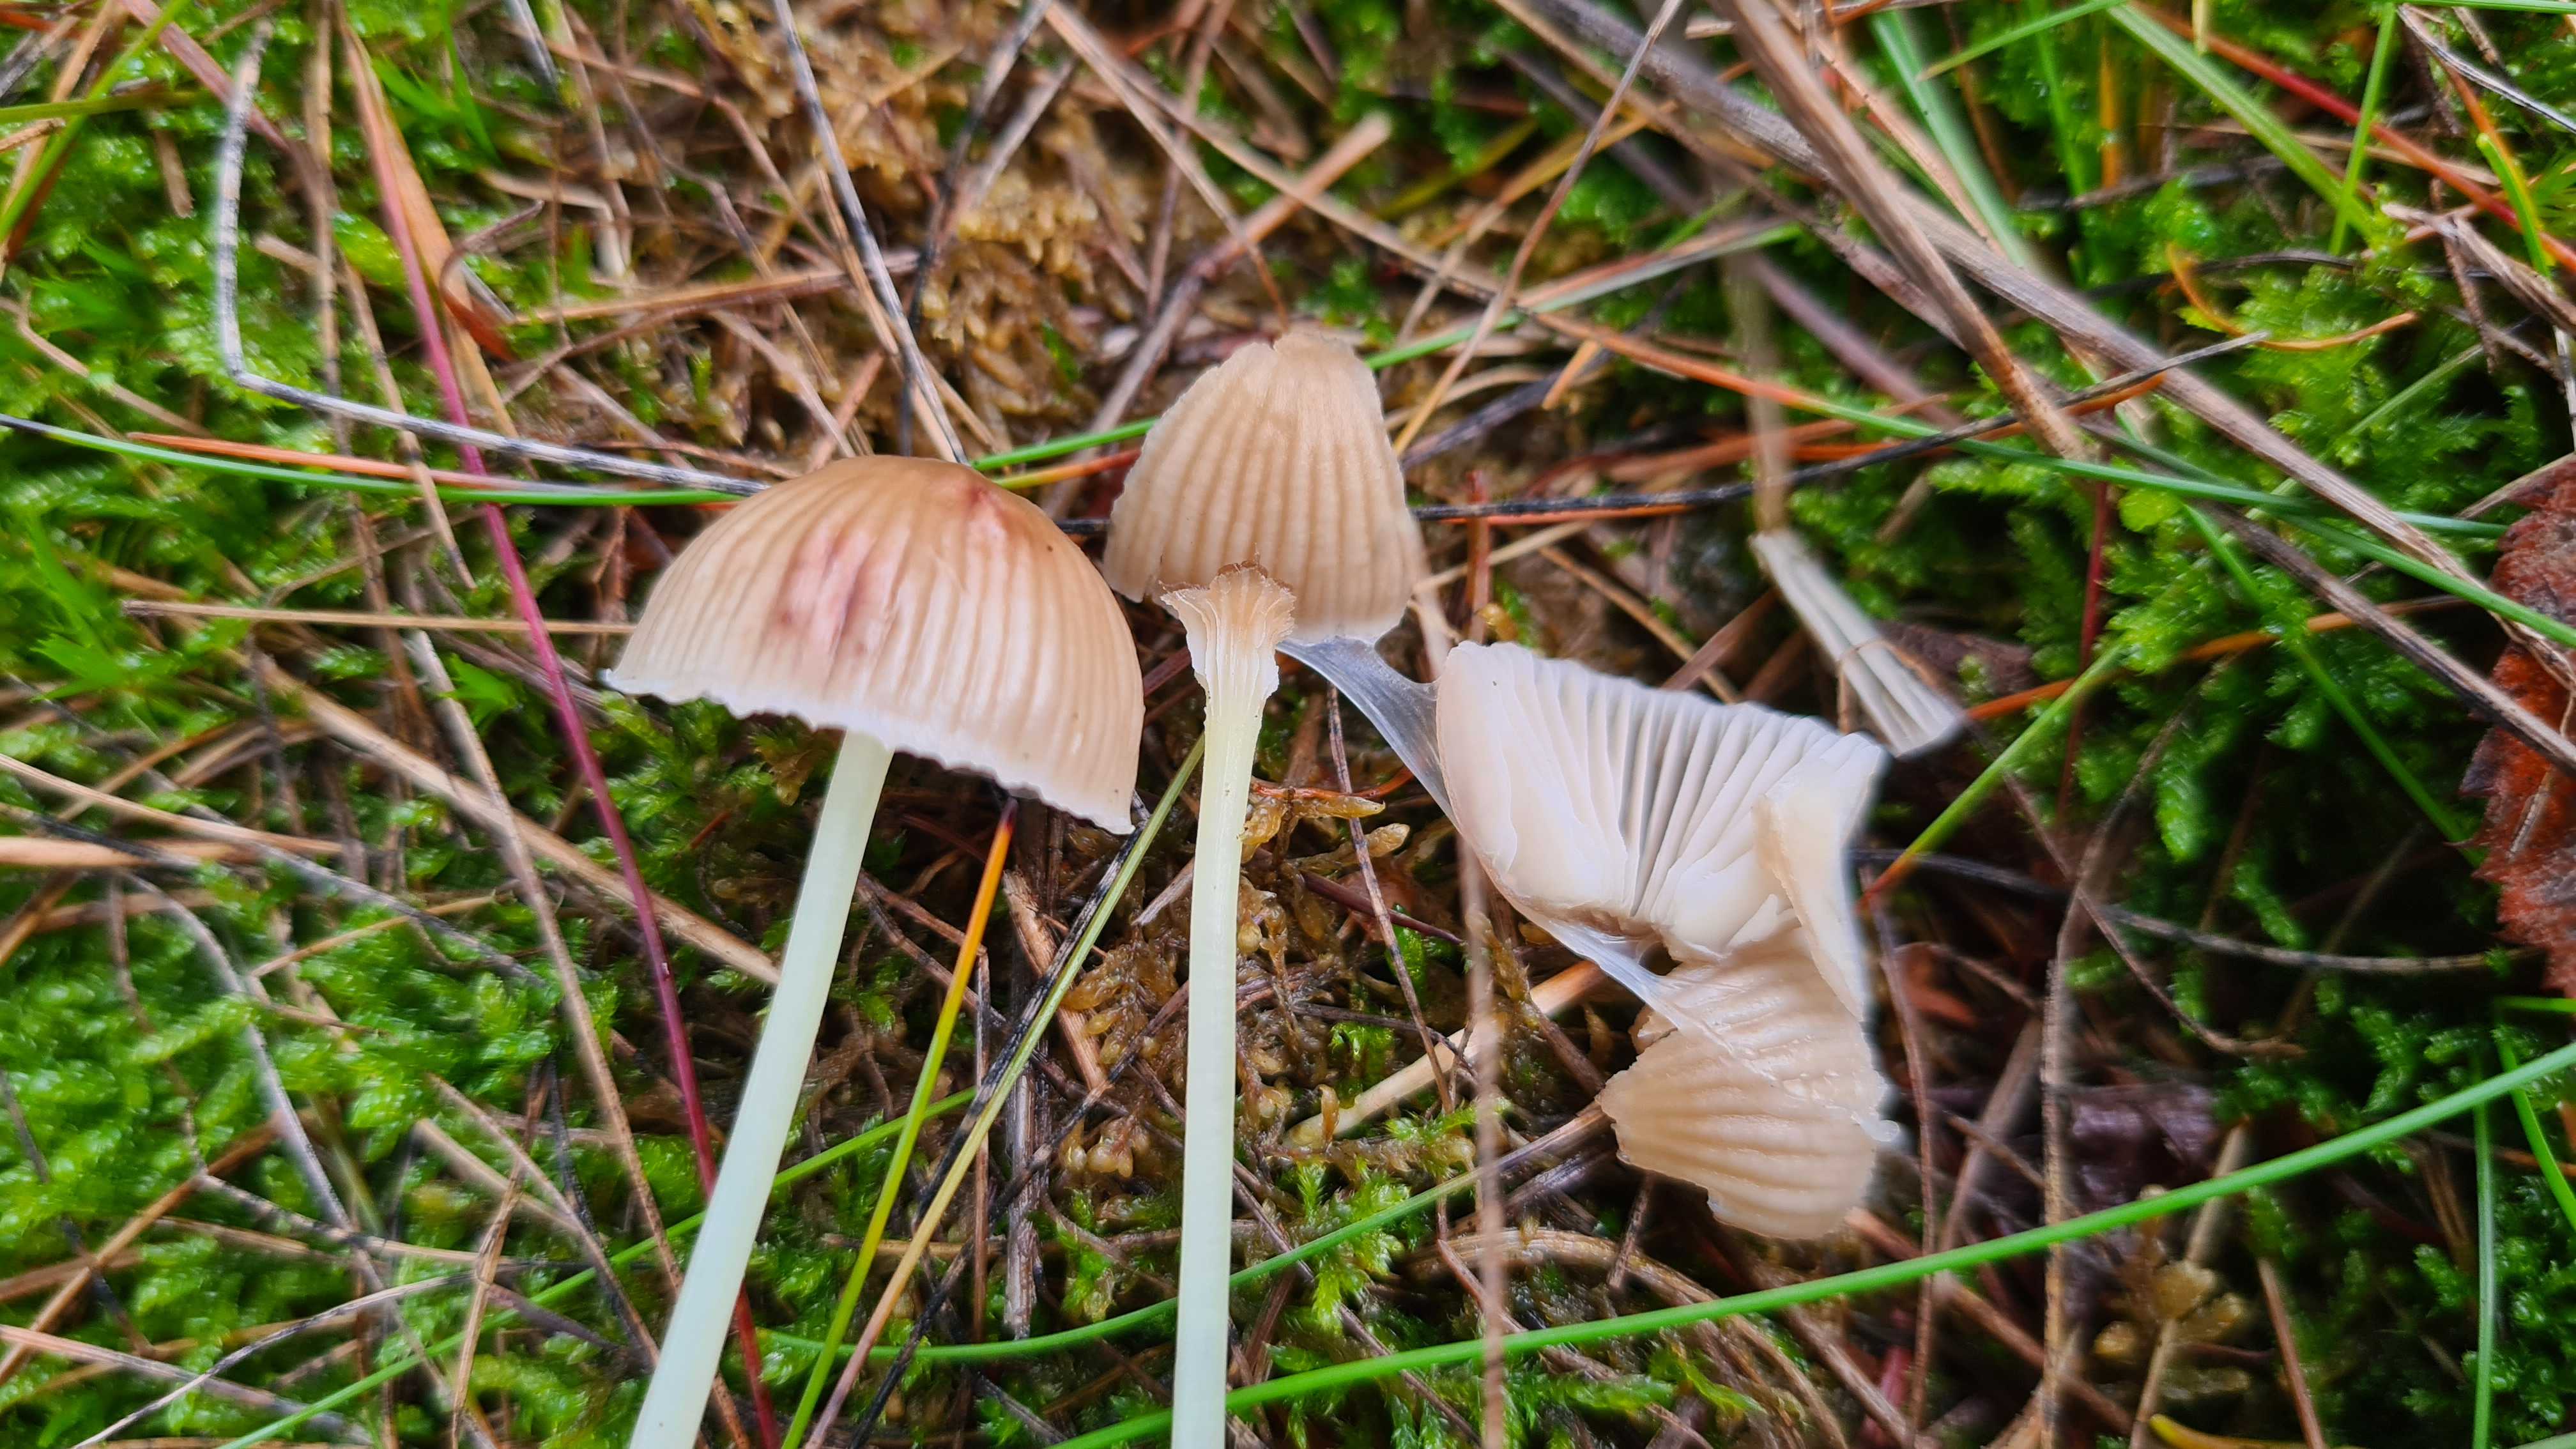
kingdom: Fungi
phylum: Basidiomycota
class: Agaricomycetes
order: Agaricales
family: Mycenaceae
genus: Mycena
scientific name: Mycena epipterygia
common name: gulstokket huesvamp
